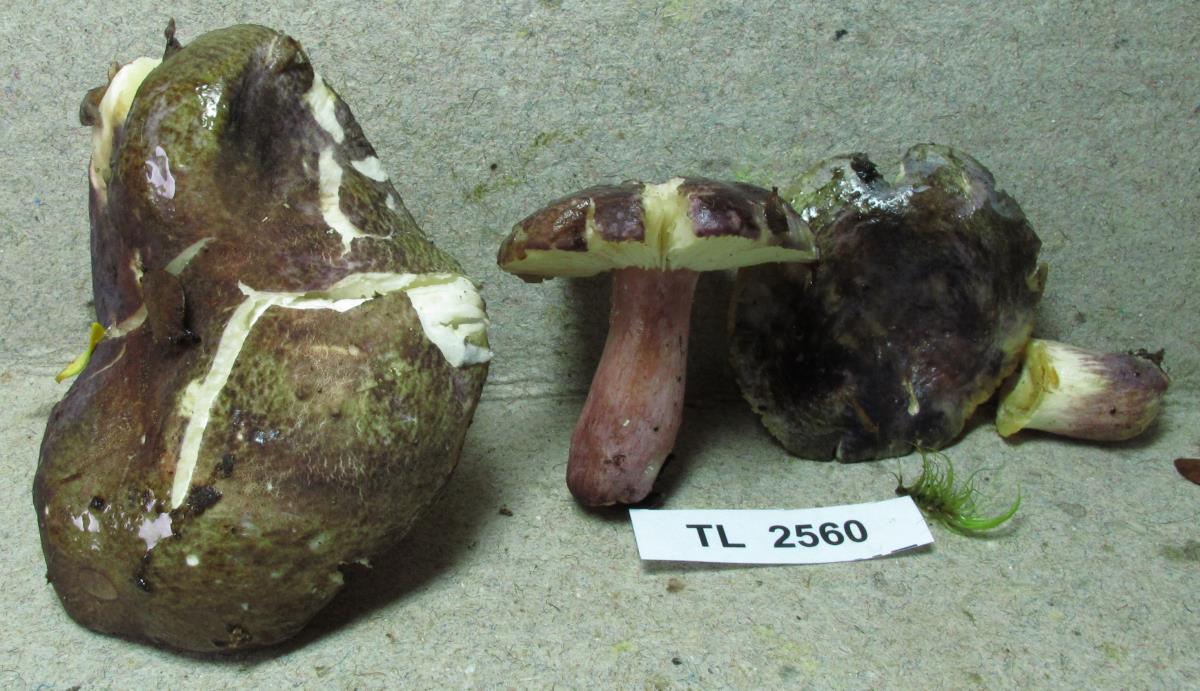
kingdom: Fungi
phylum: Basidiomycota
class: Agaricomycetes
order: Russulales
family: Russulaceae
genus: Russula
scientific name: Russula
